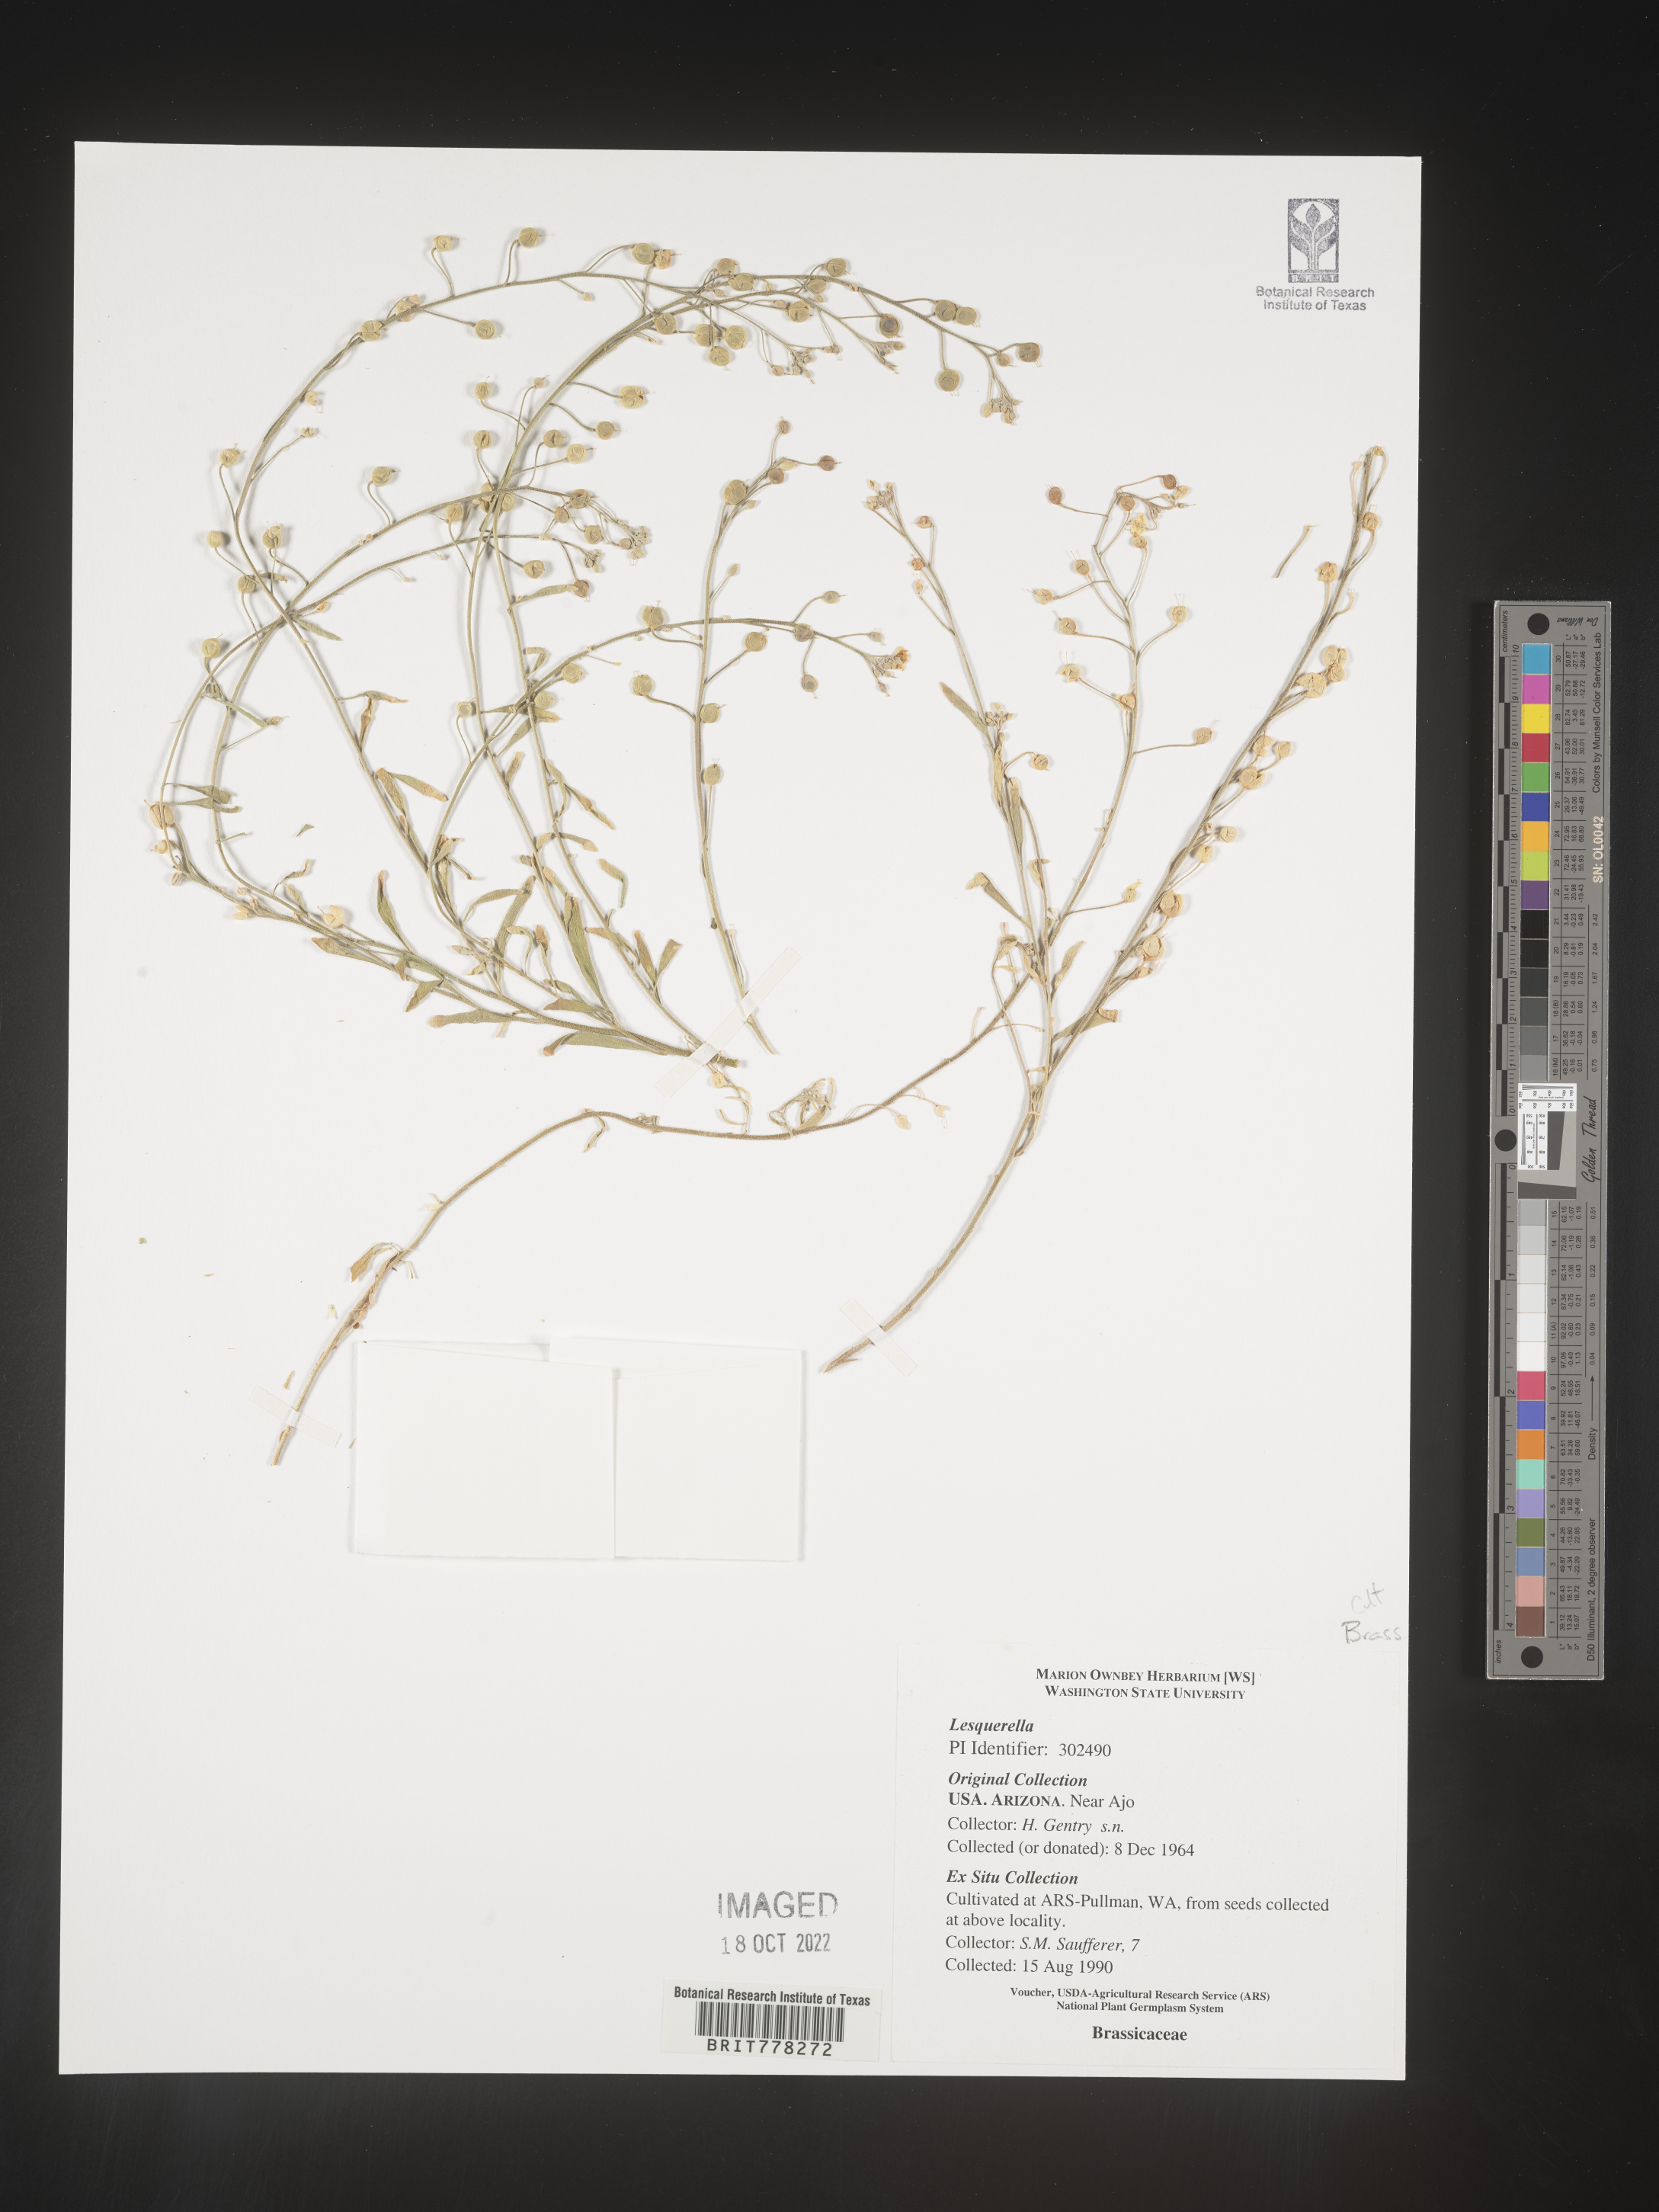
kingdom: Chromista
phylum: Cercozoa
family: Psammonobiotidae
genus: Lesquerella
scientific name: Lesquerella
